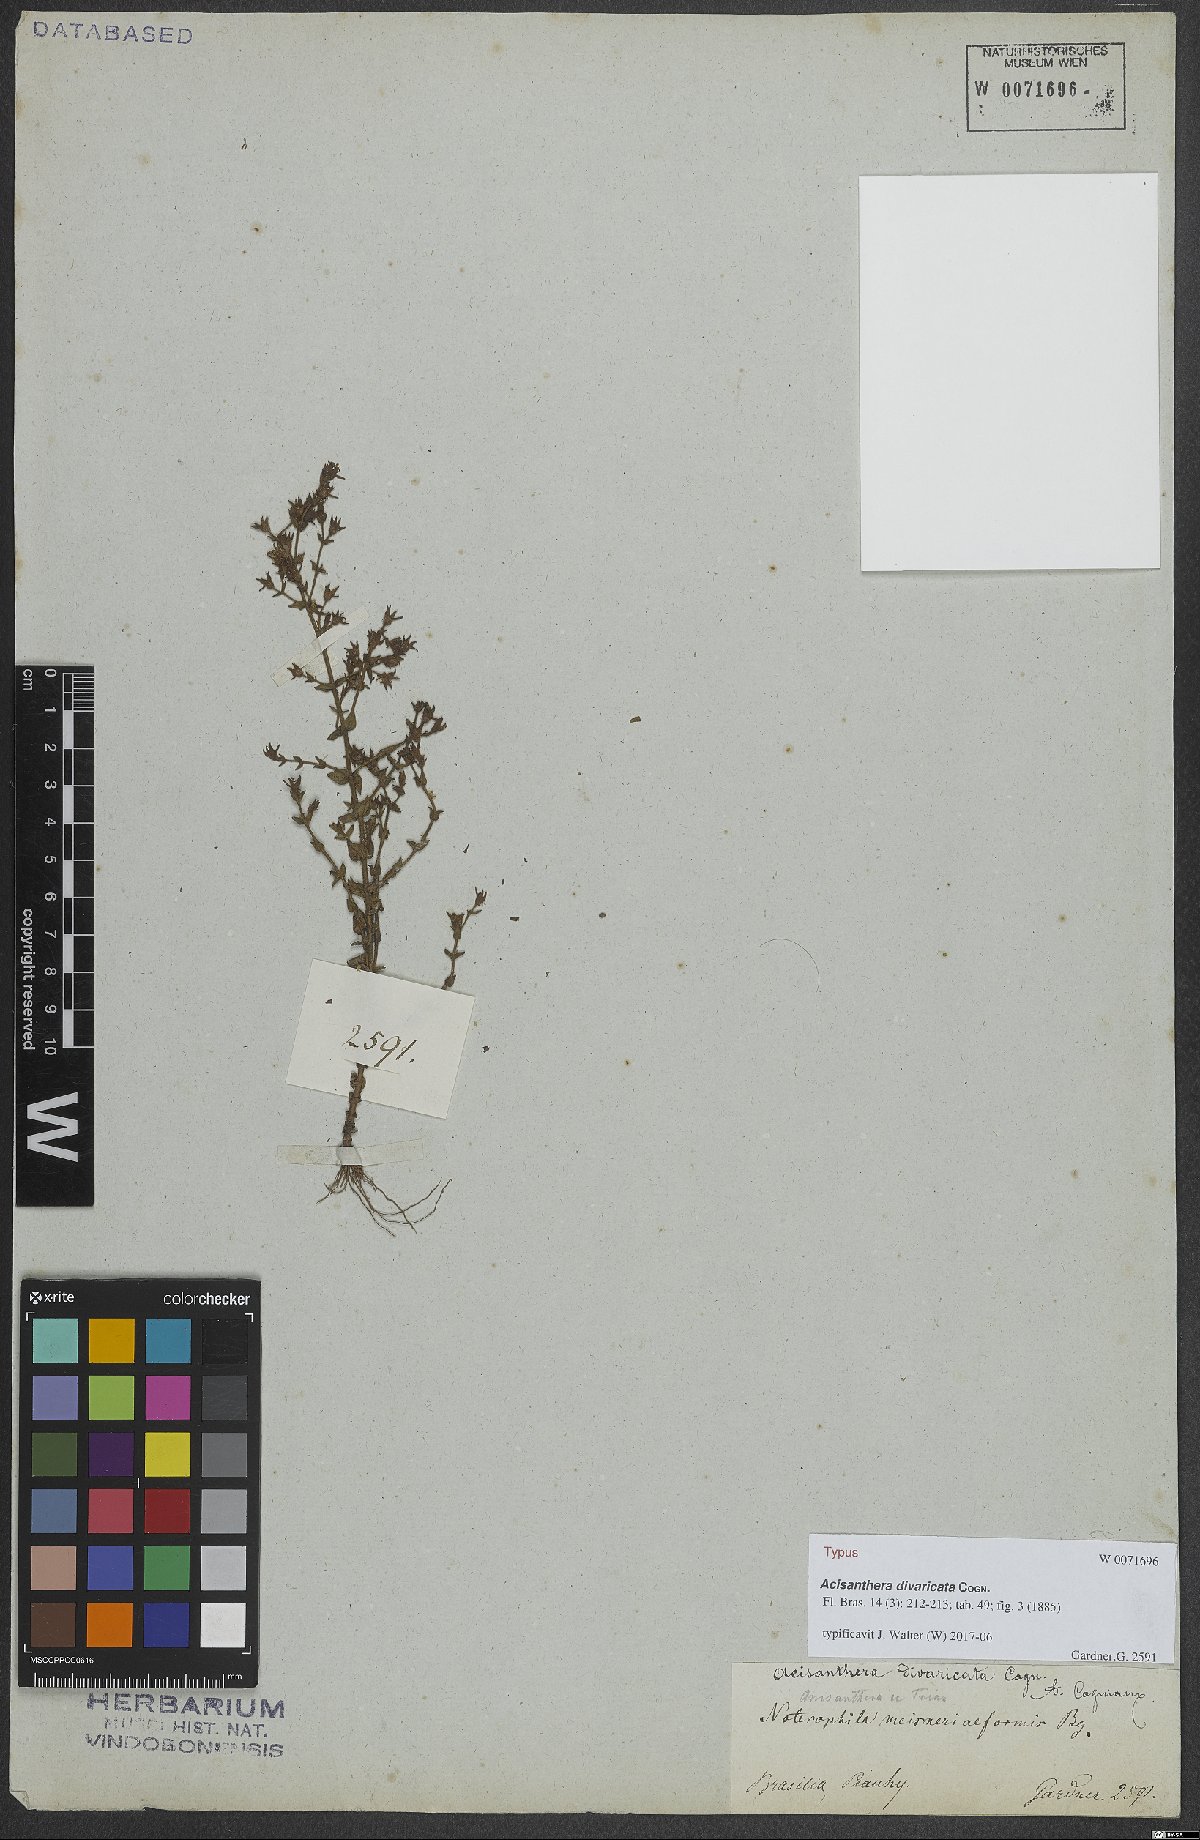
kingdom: Plantae
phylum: Tracheophyta
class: Magnoliopsida
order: Myrtales
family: Melastomataceae
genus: Acisanthera
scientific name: Acisanthera divaricata
